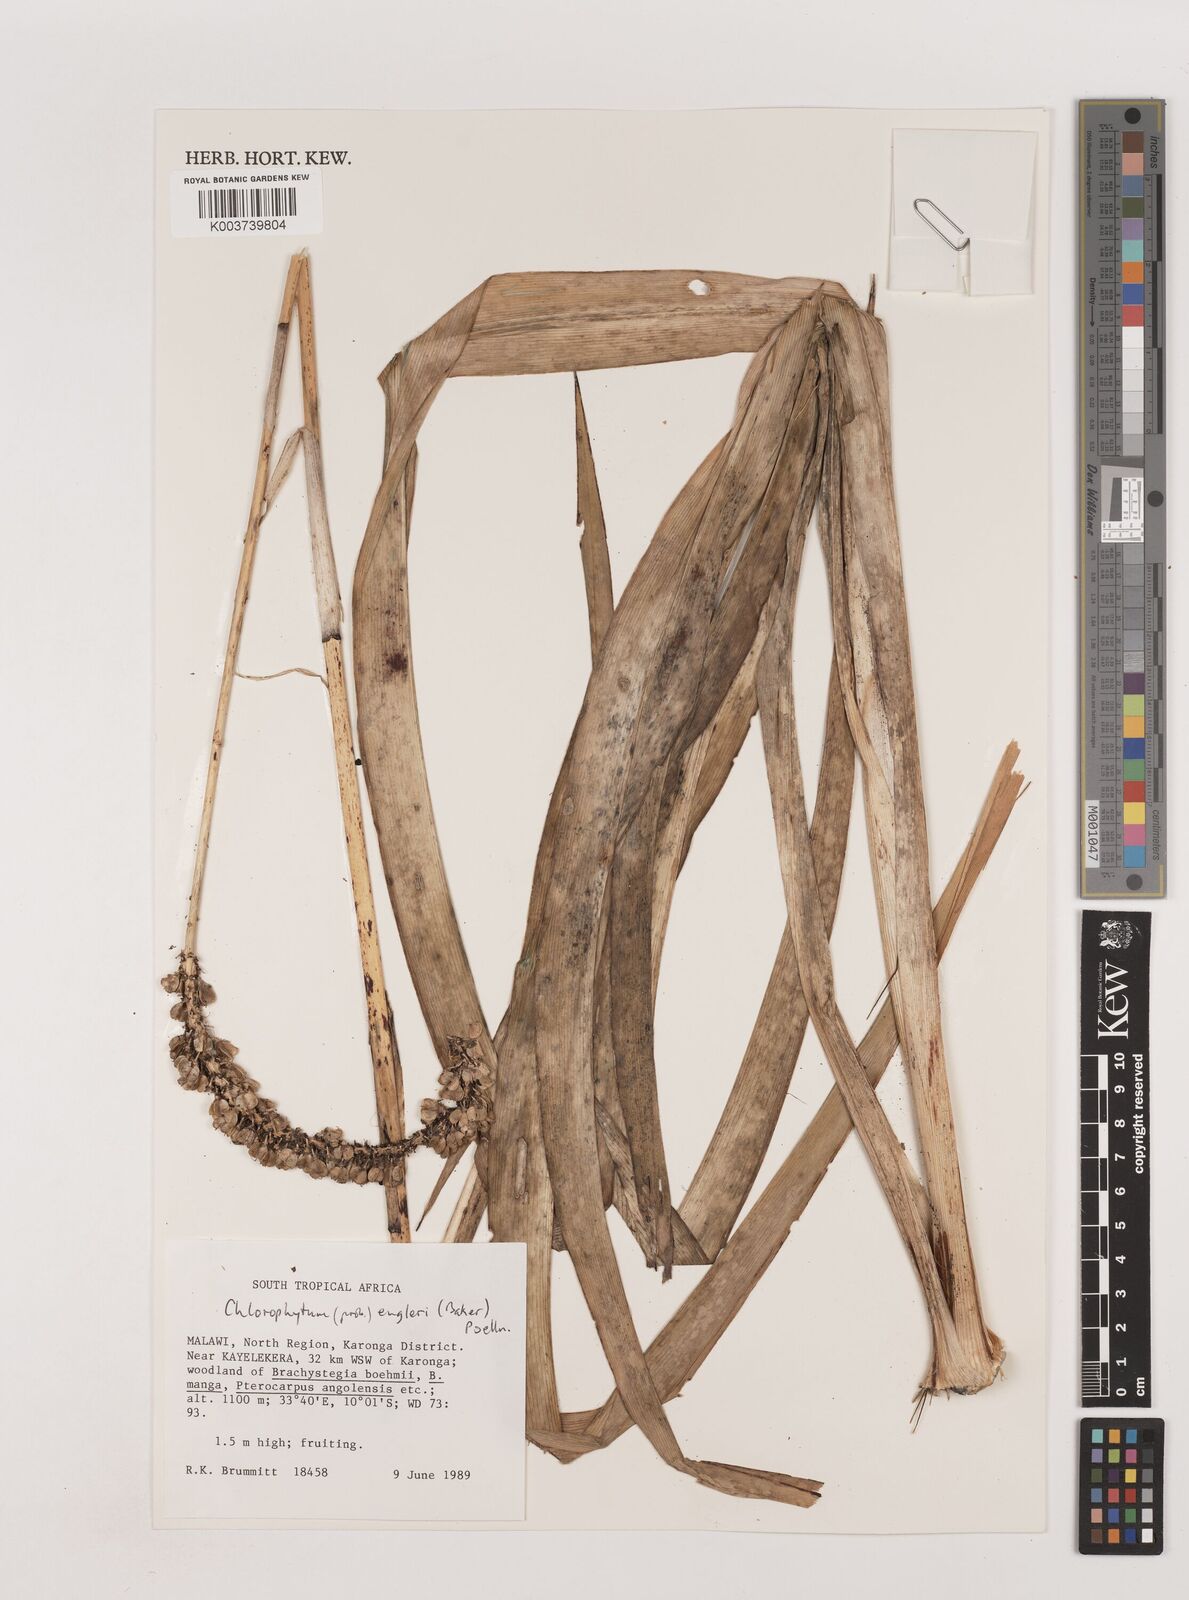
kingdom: Plantae
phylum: Tracheophyta
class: Liliopsida
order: Asparagales
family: Asparagaceae
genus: Chlorophytum
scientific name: Chlorophytum colubrinum
